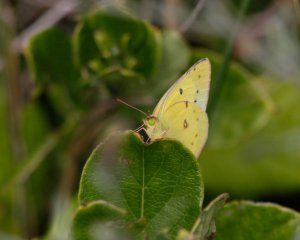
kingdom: Animalia
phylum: Arthropoda
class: Insecta
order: Lepidoptera
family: Pieridae
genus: Colias
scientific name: Colias eurytheme
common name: Orange Sulphur
